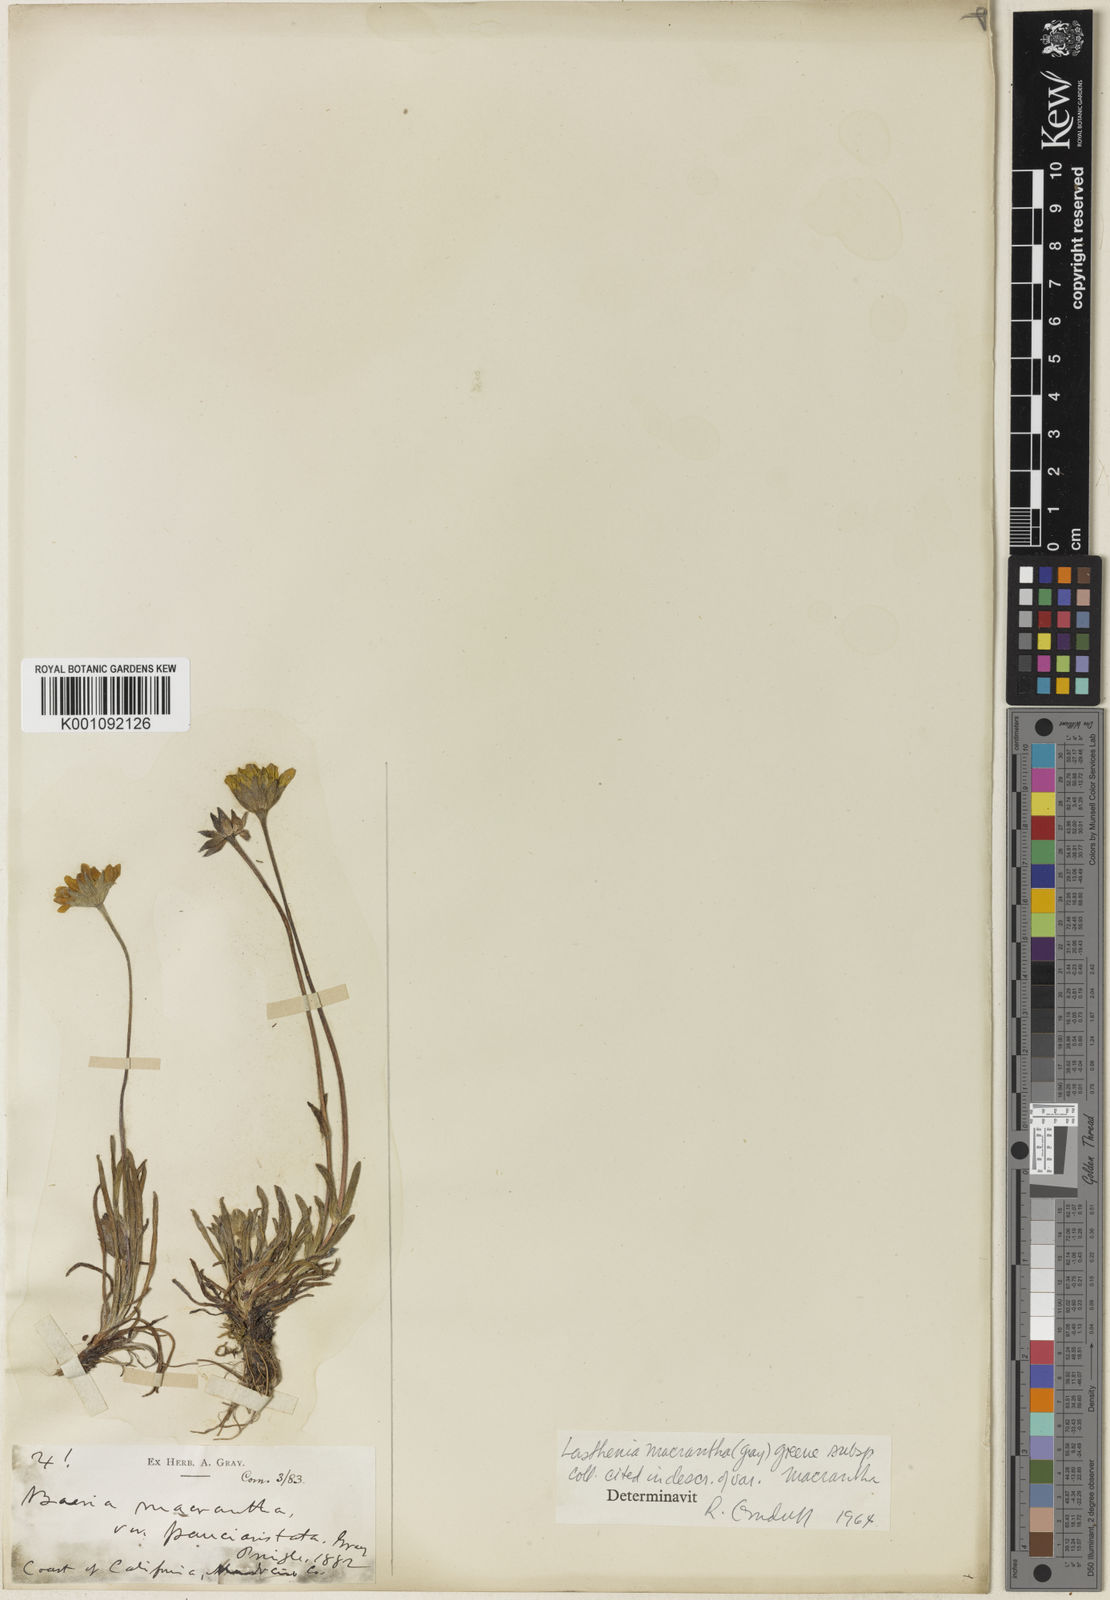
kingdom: Plantae
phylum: Tracheophyta
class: Magnoliopsida
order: Asterales
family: Asteraceae
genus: Lasthenia
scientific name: Lasthenia californica
